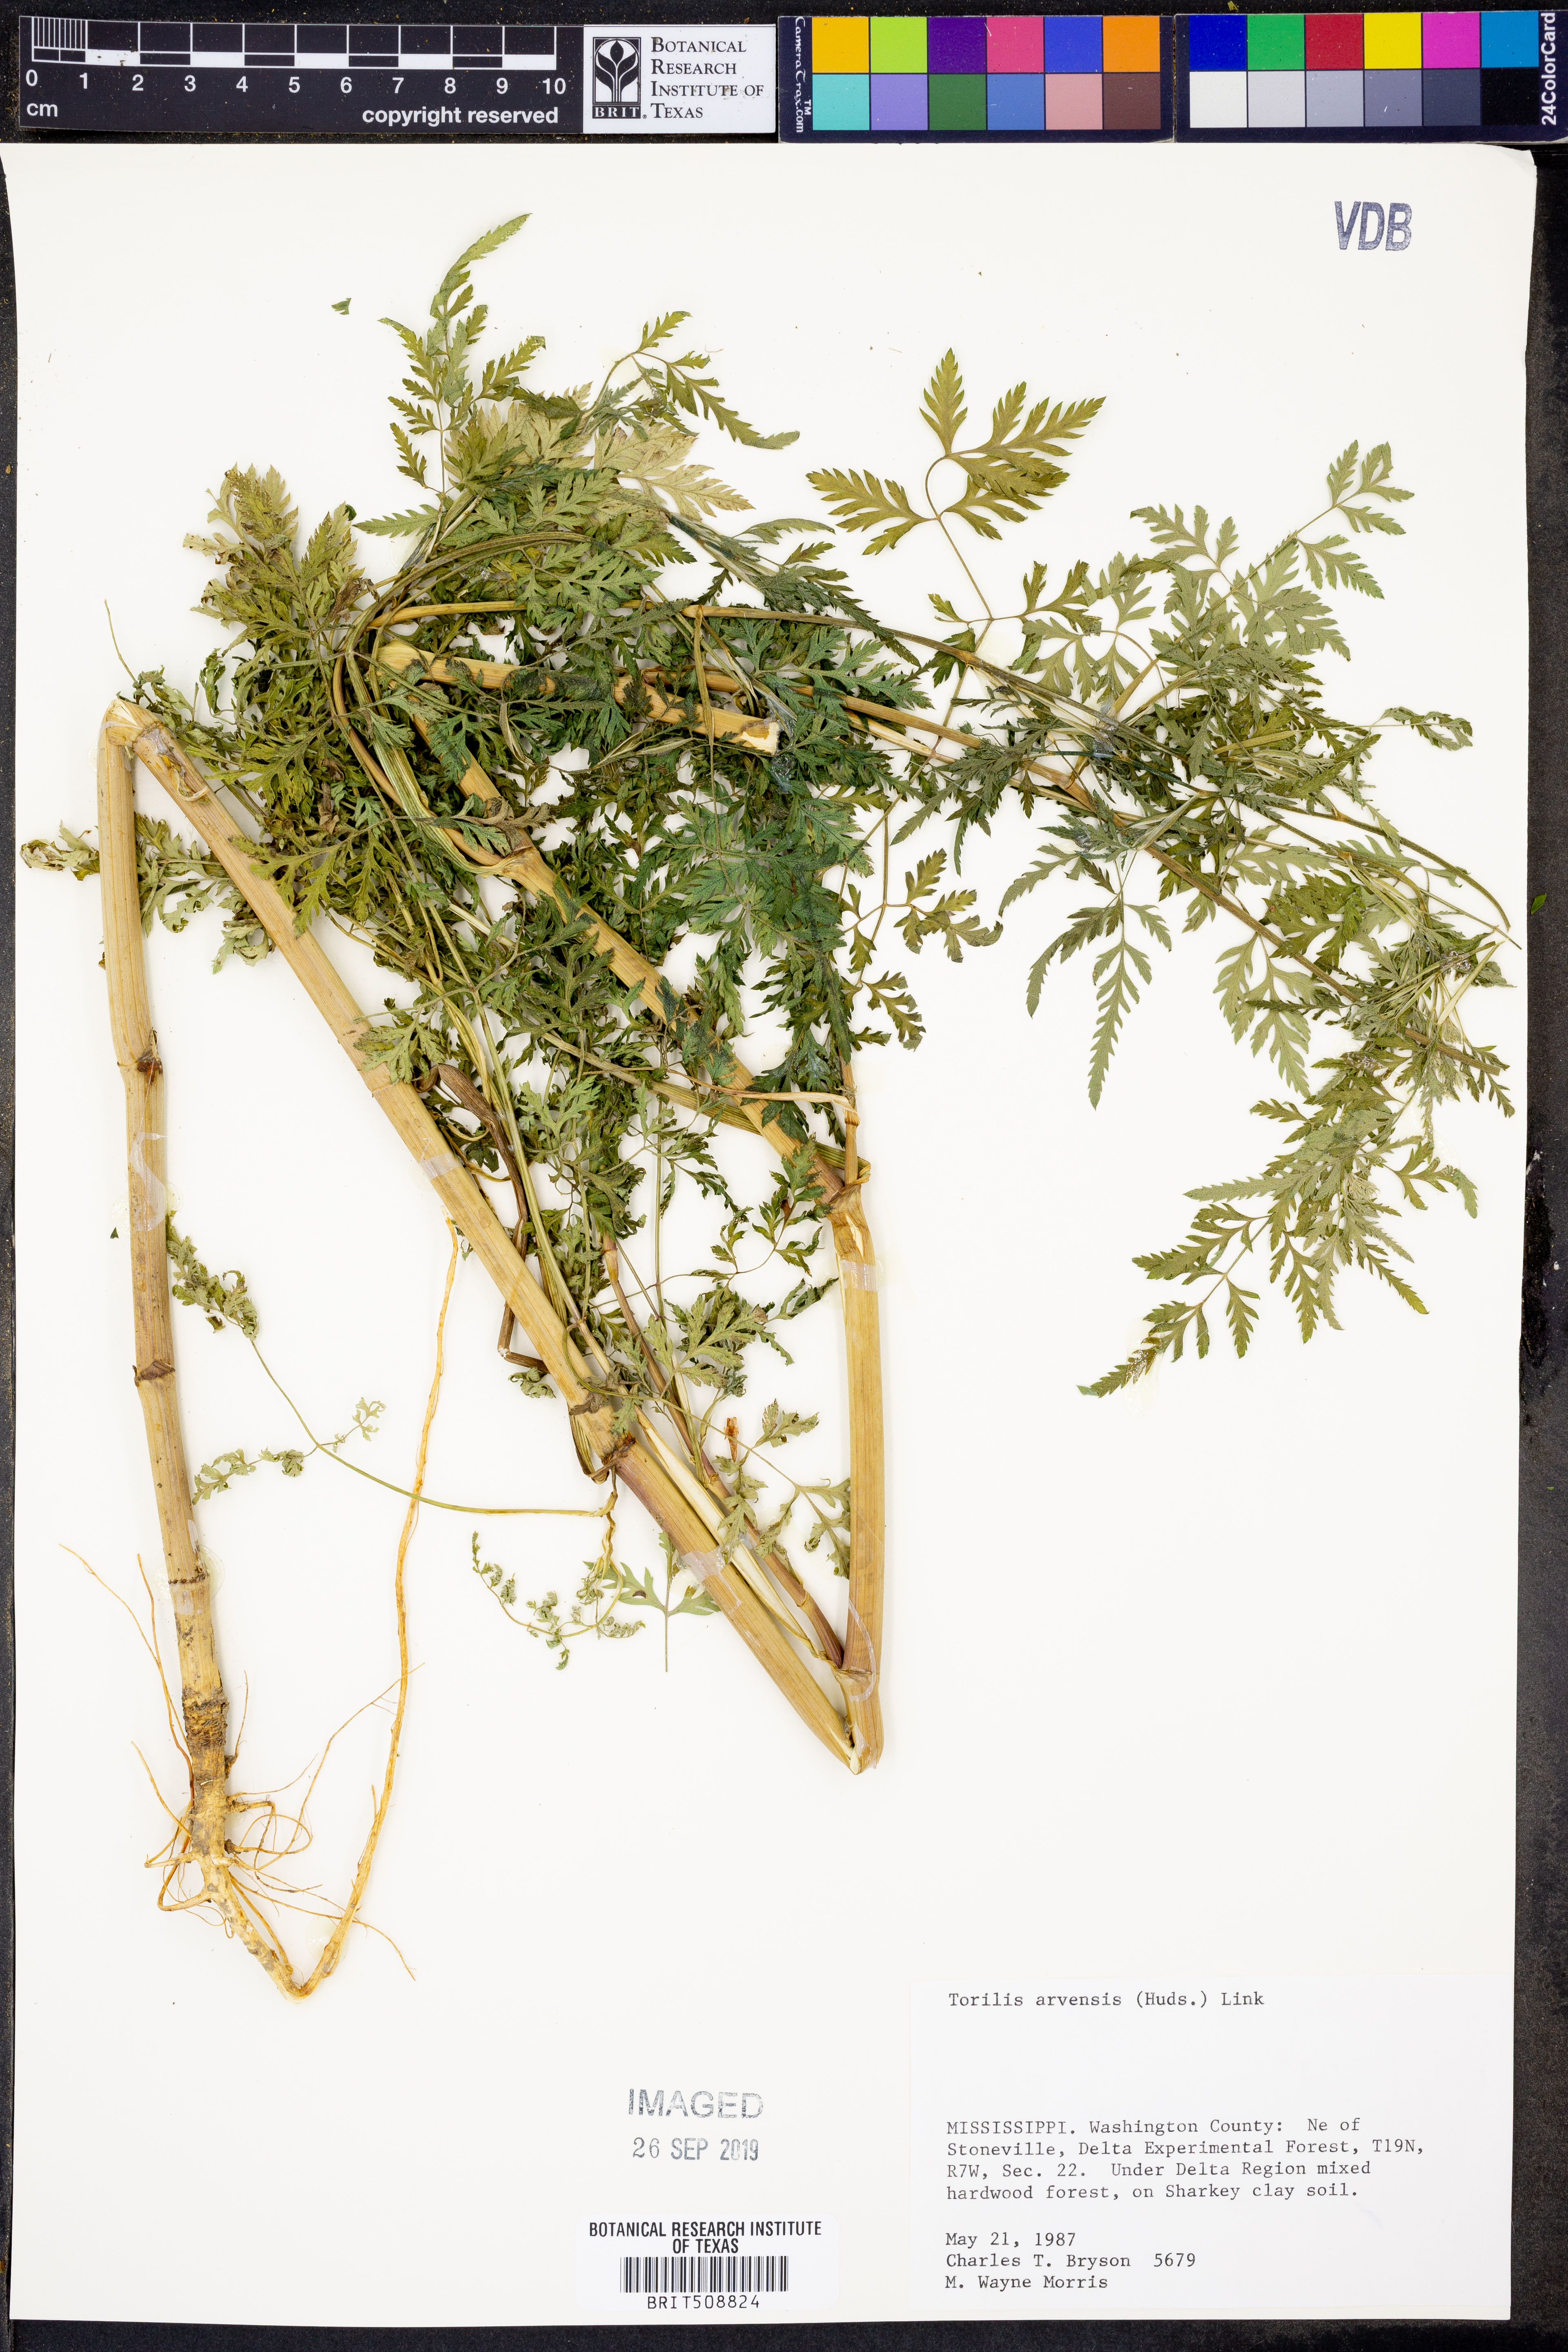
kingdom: Plantae
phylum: Tracheophyta
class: Magnoliopsida
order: Apiales
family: Apiaceae
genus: Torilis
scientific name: Torilis arvensis
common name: Spreading hedge-parsley
